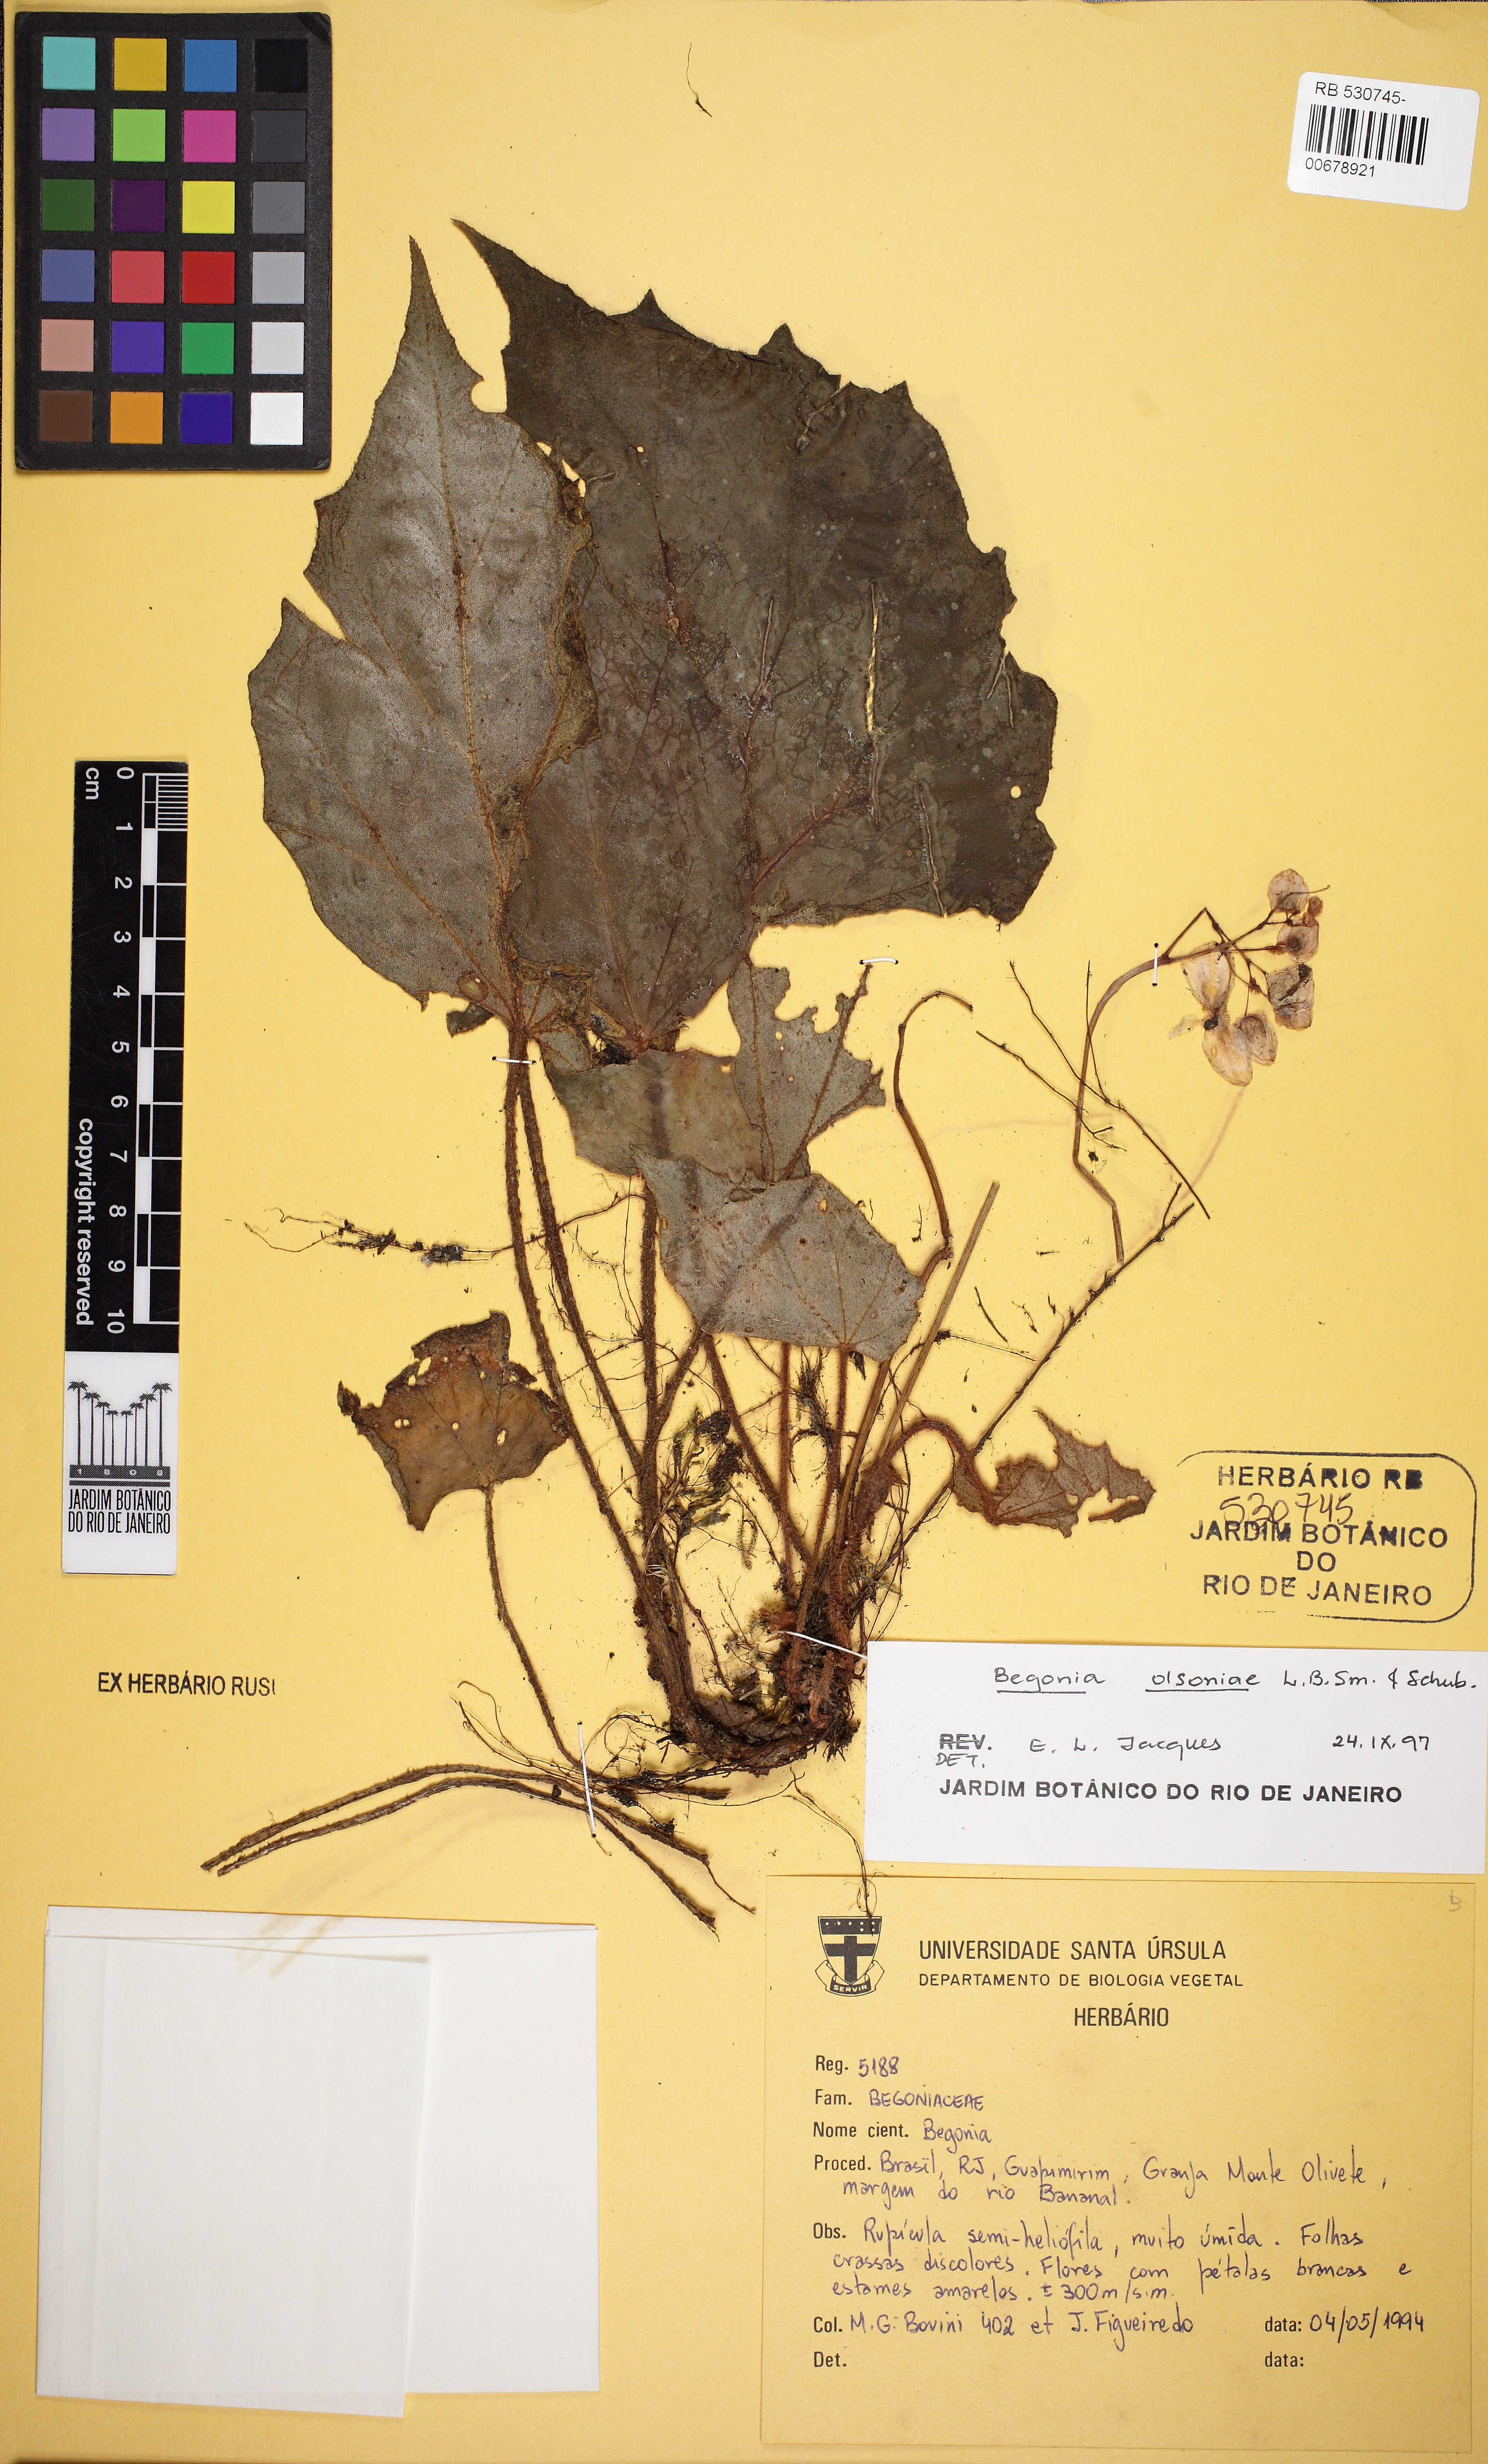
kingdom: Plantae
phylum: Tracheophyta
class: Magnoliopsida
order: Cucurbitales
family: Begoniaceae
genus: Begonia
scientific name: Begonia olsoniae
